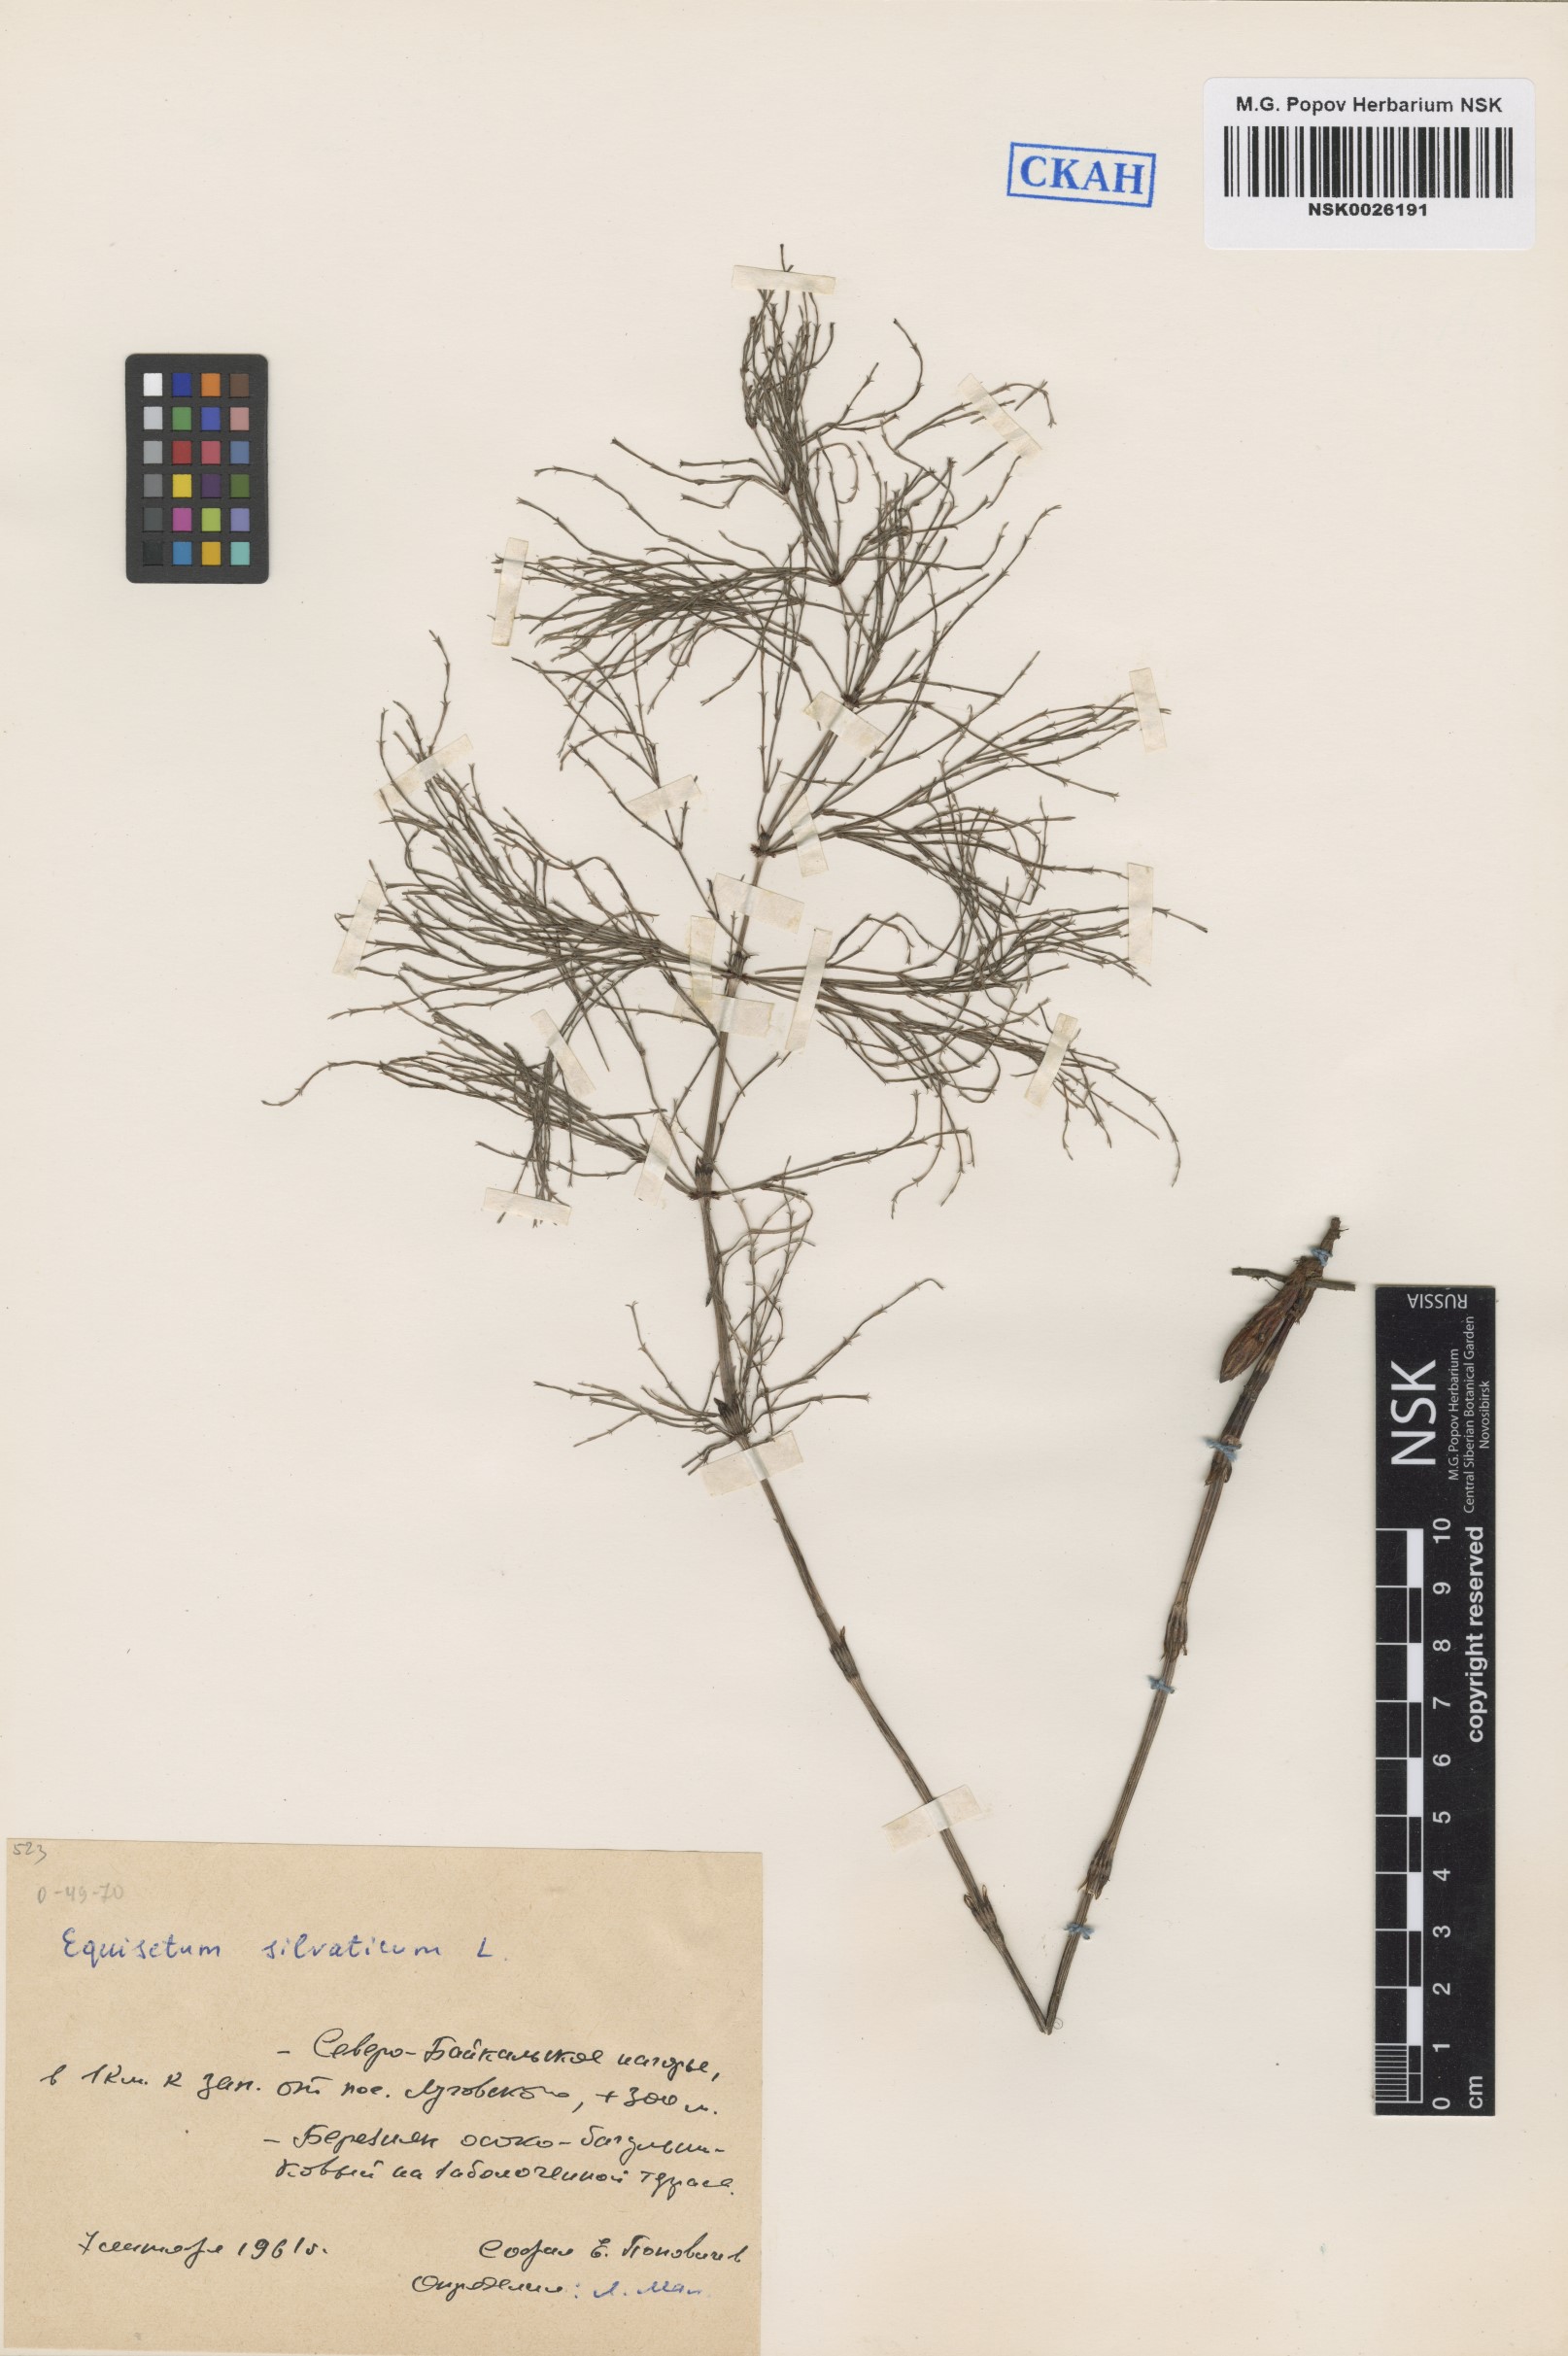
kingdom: Plantae
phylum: Tracheophyta
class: Polypodiopsida
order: Equisetales
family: Equisetaceae
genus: Equisetum
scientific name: Equisetum sylvaticum
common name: Wood horsetail
